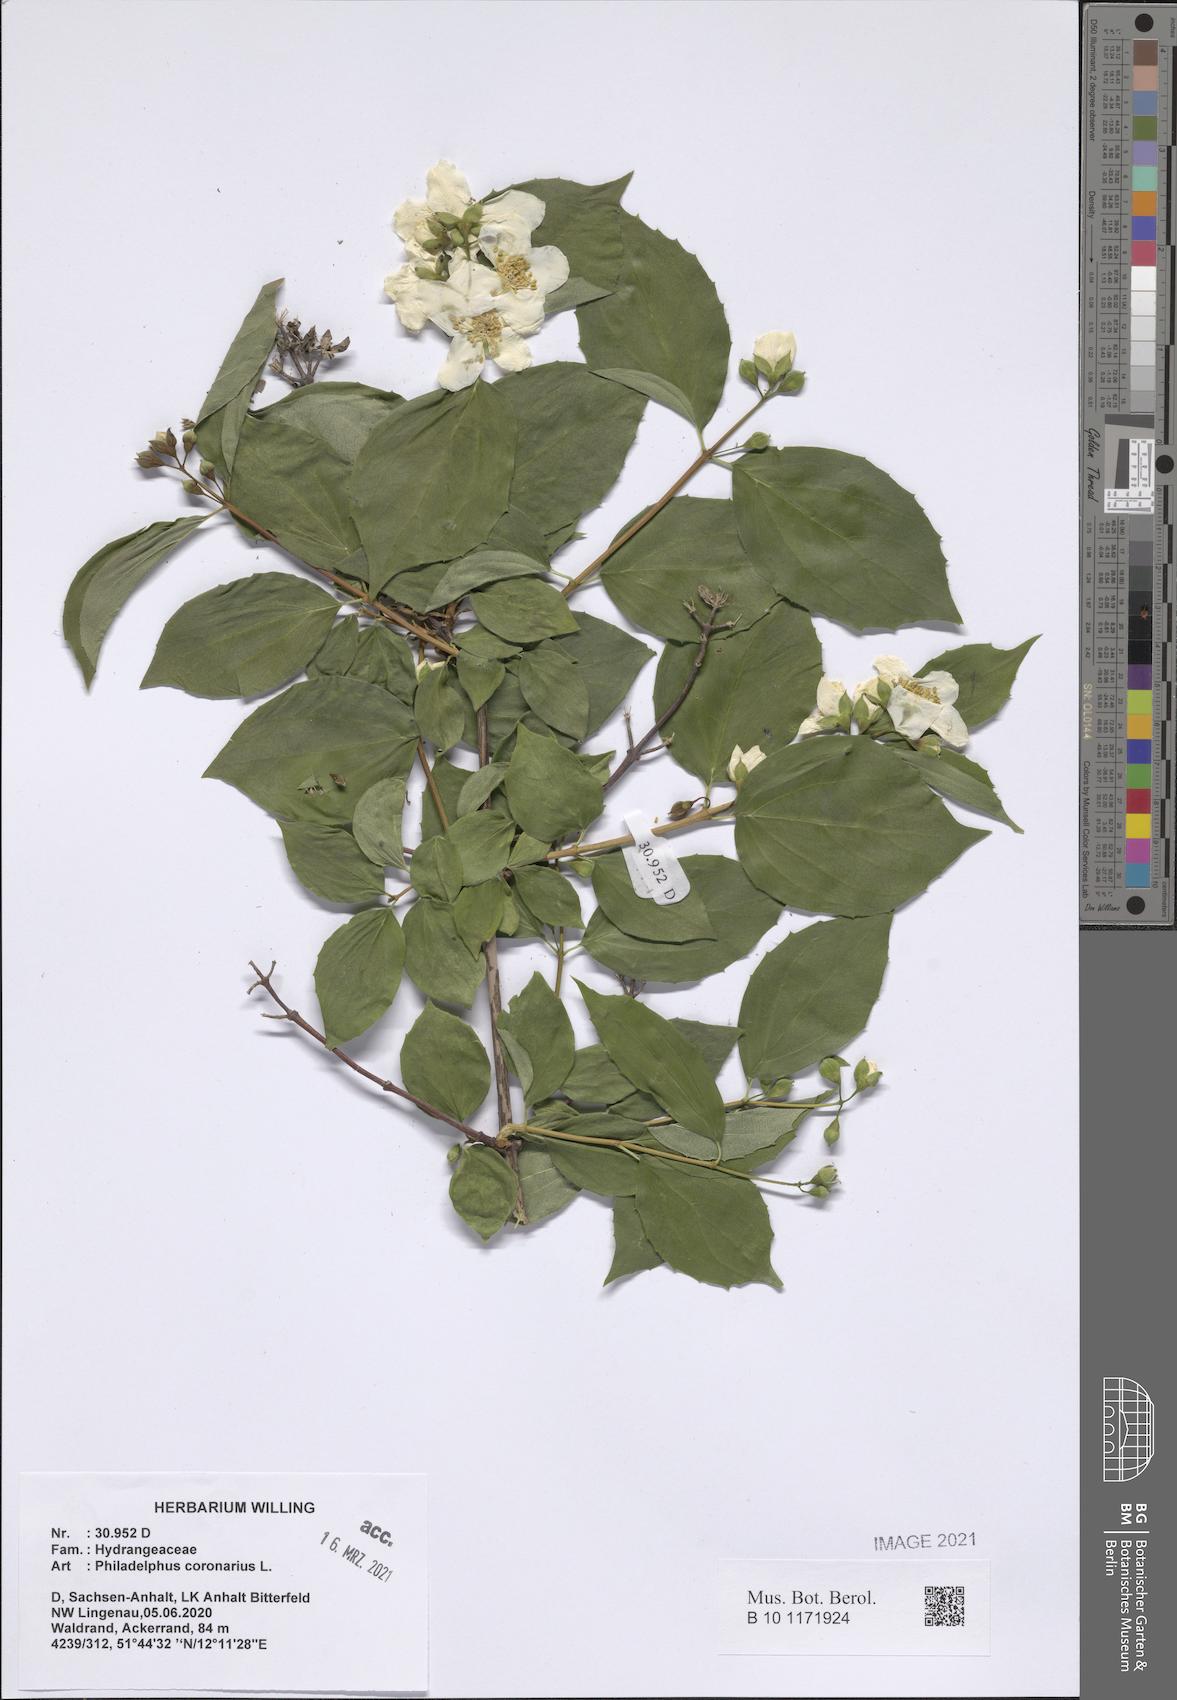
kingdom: Plantae
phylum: Tracheophyta
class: Magnoliopsida
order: Cornales
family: Hydrangeaceae
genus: Philadelphus
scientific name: Philadelphus coronarius
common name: Mock orange
